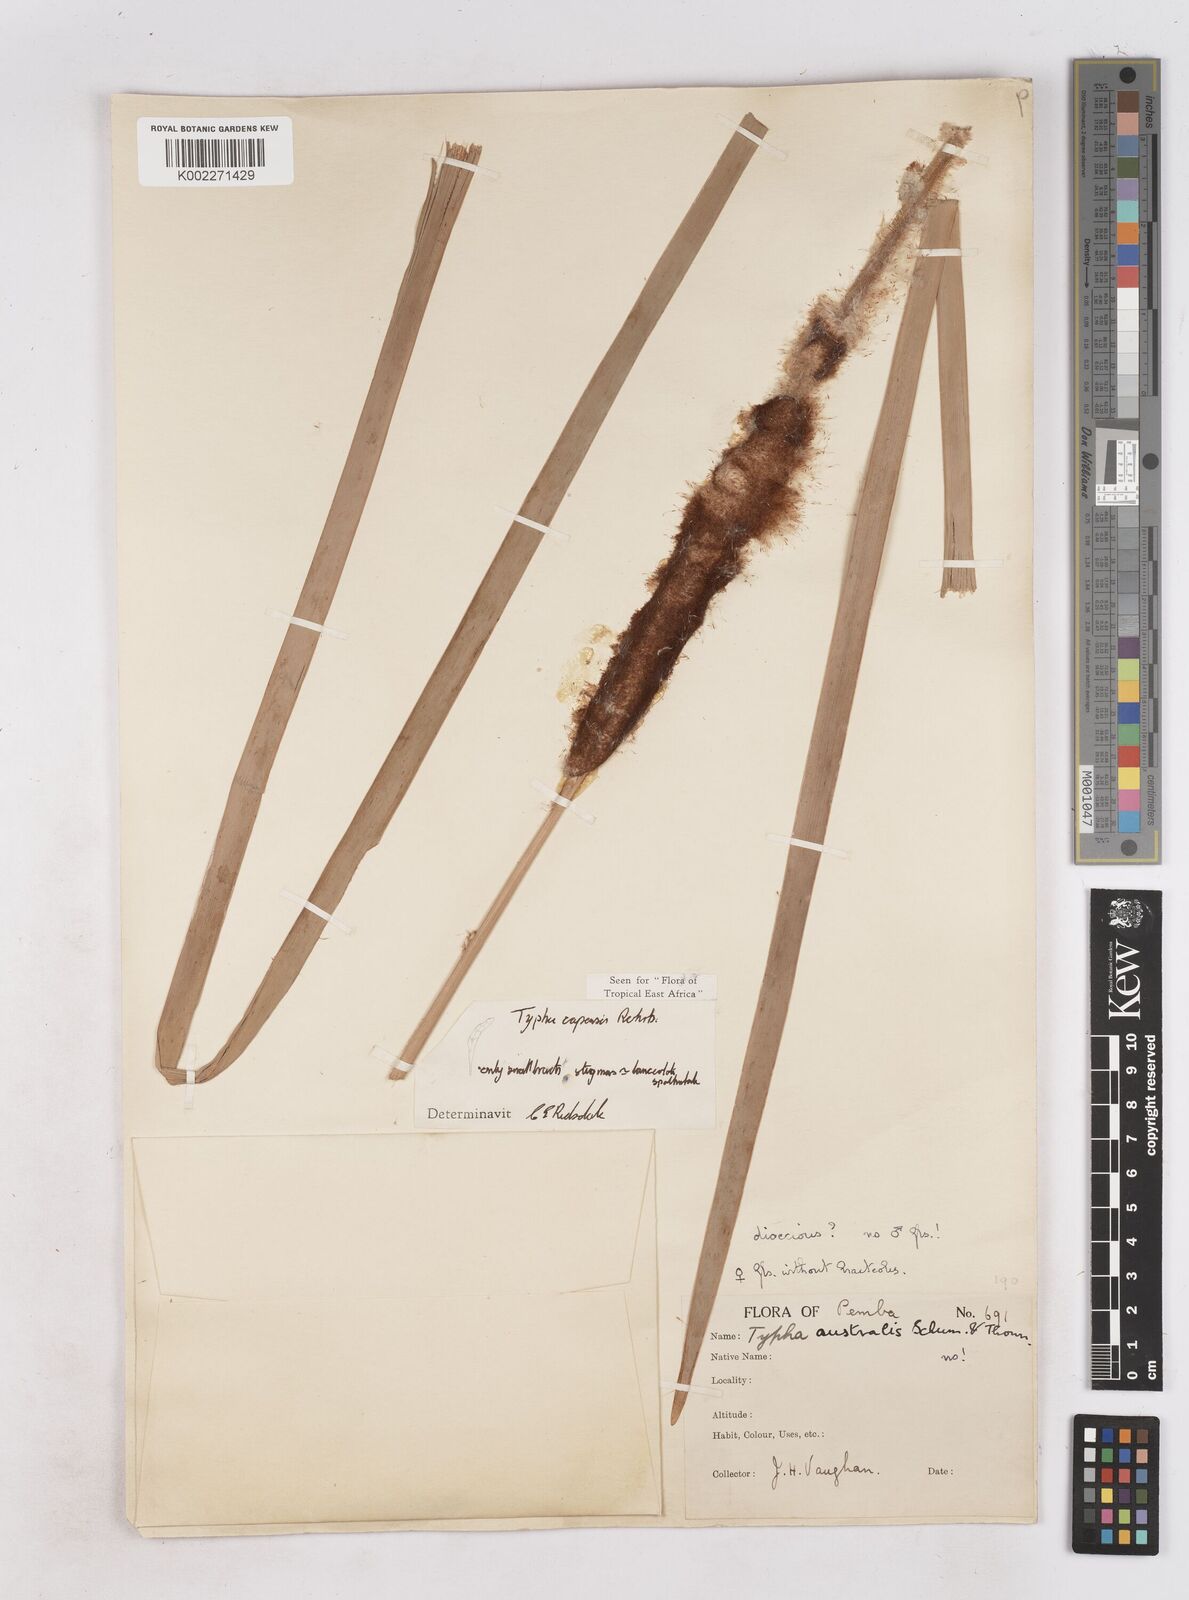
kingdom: Plantae
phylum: Tracheophyta
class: Liliopsida
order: Poales
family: Typhaceae
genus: Typha
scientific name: Typha capensis
